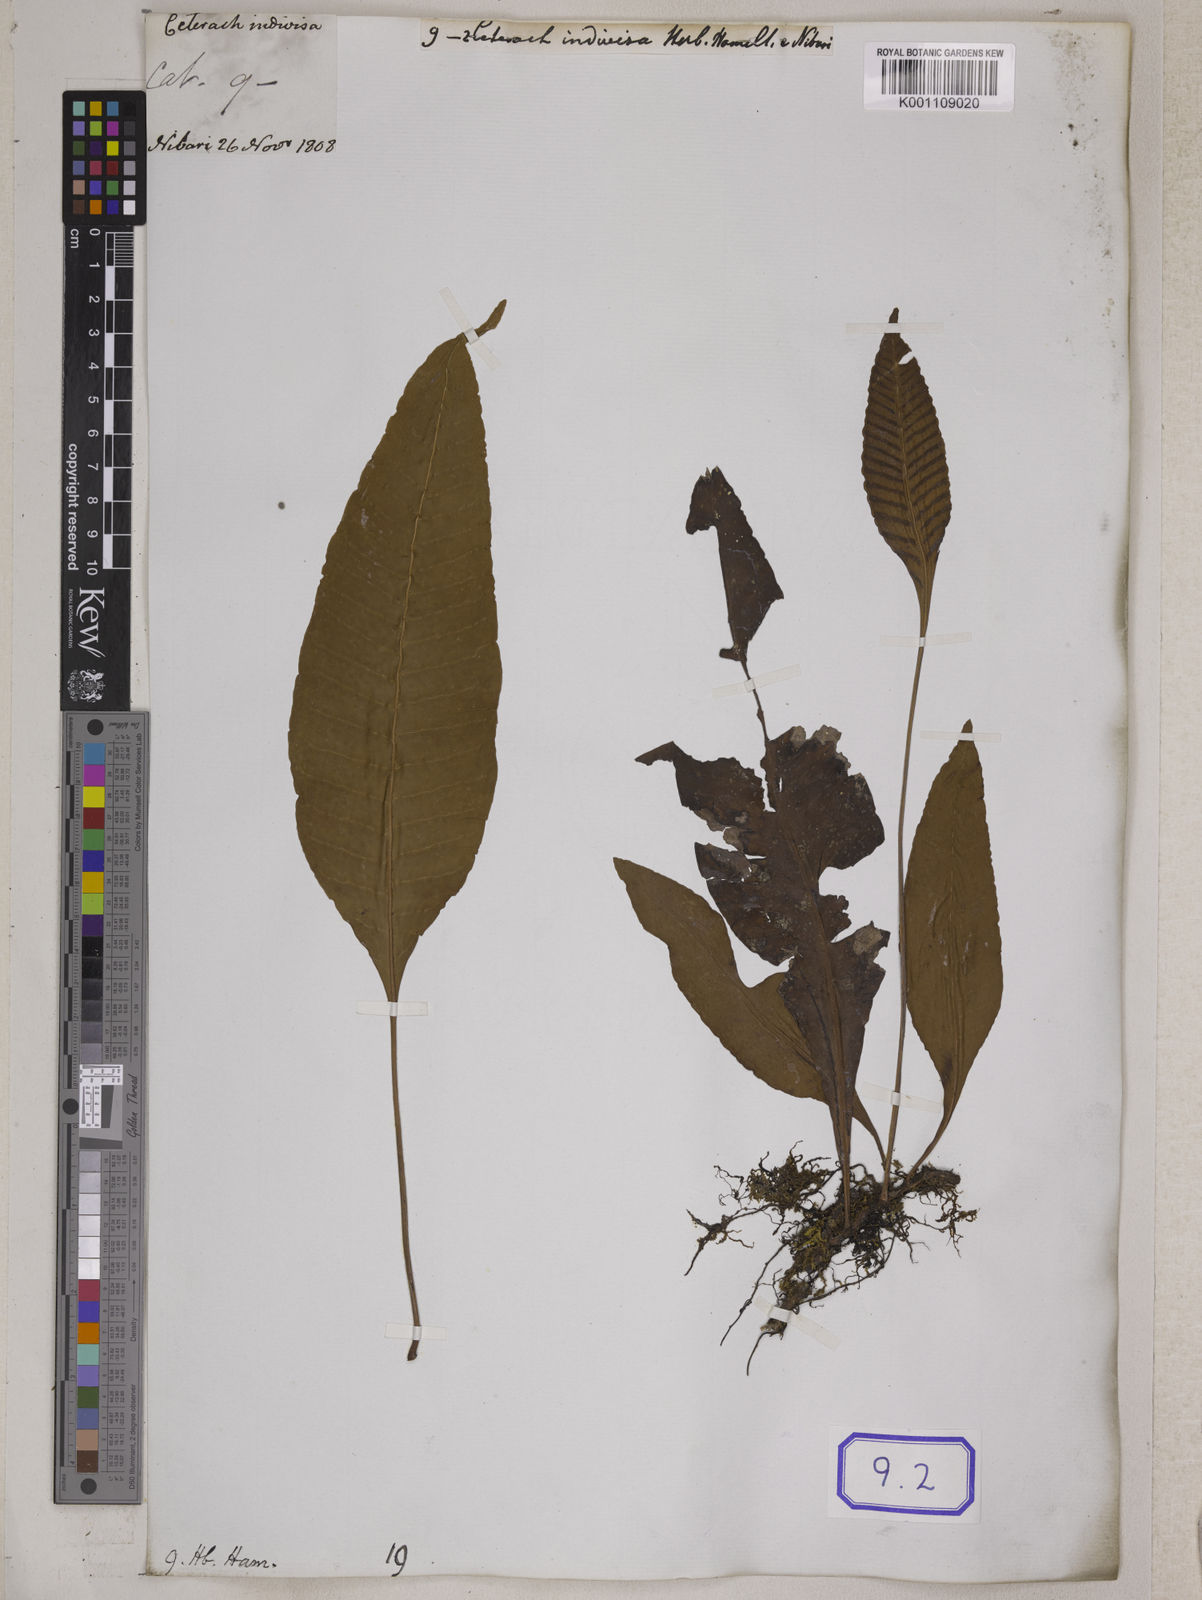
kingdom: Plantae
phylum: Tracheophyta
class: Polypodiopsida
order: Polypodiales
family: Polypodiaceae
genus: Leptochilus
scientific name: Leptochilus pedunculatus
